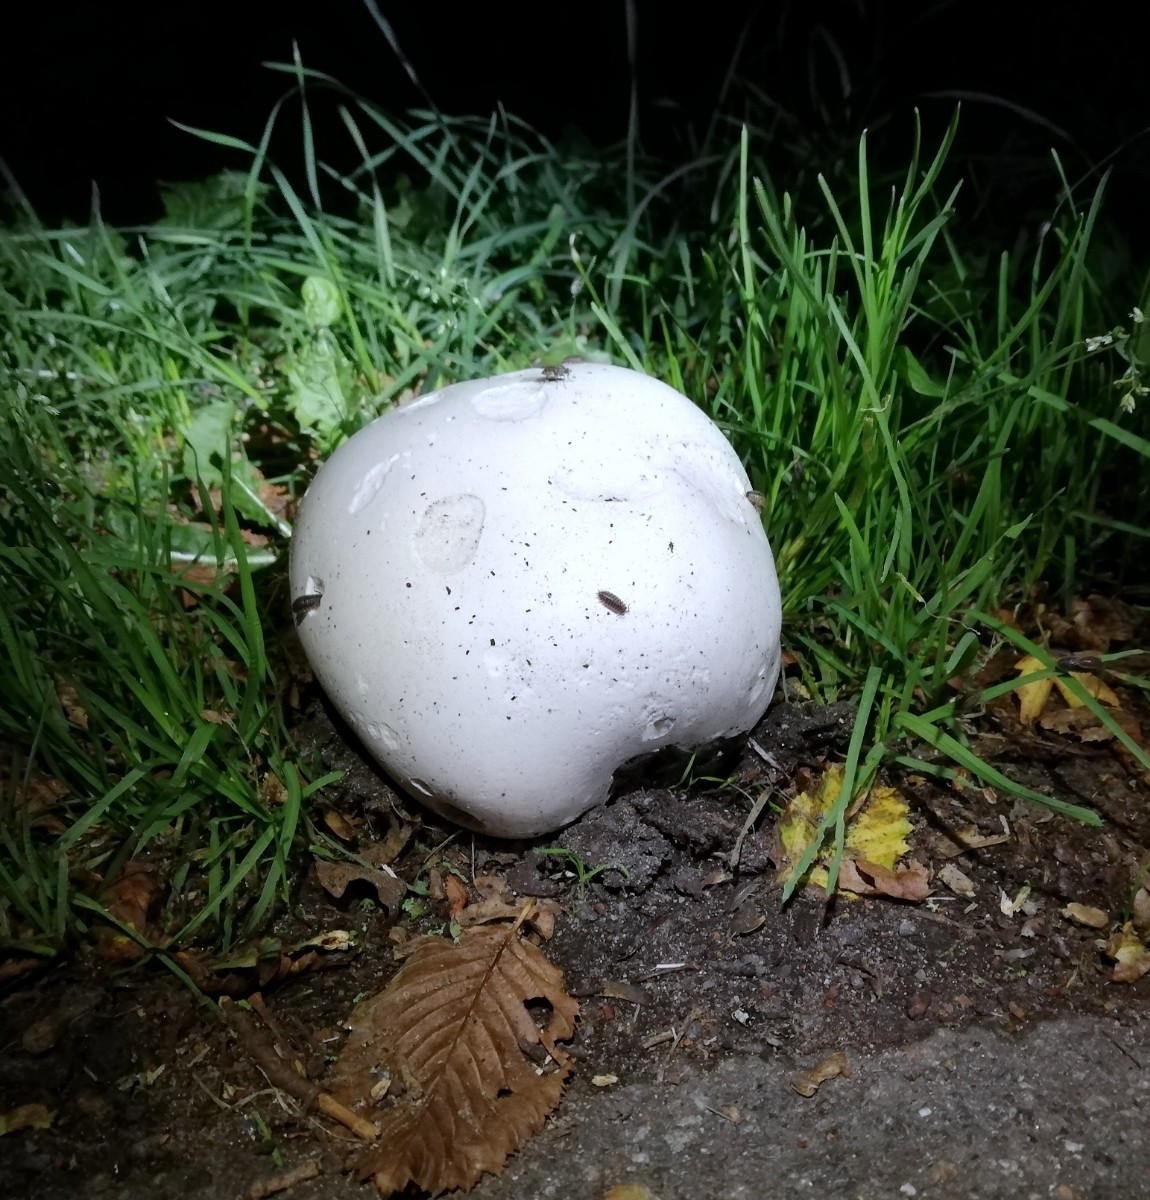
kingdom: Fungi
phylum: Basidiomycota
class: Agaricomycetes
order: Agaricales
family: Lycoperdaceae
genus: Calvatia
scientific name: Calvatia gigantea
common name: kæmpestøvbold
